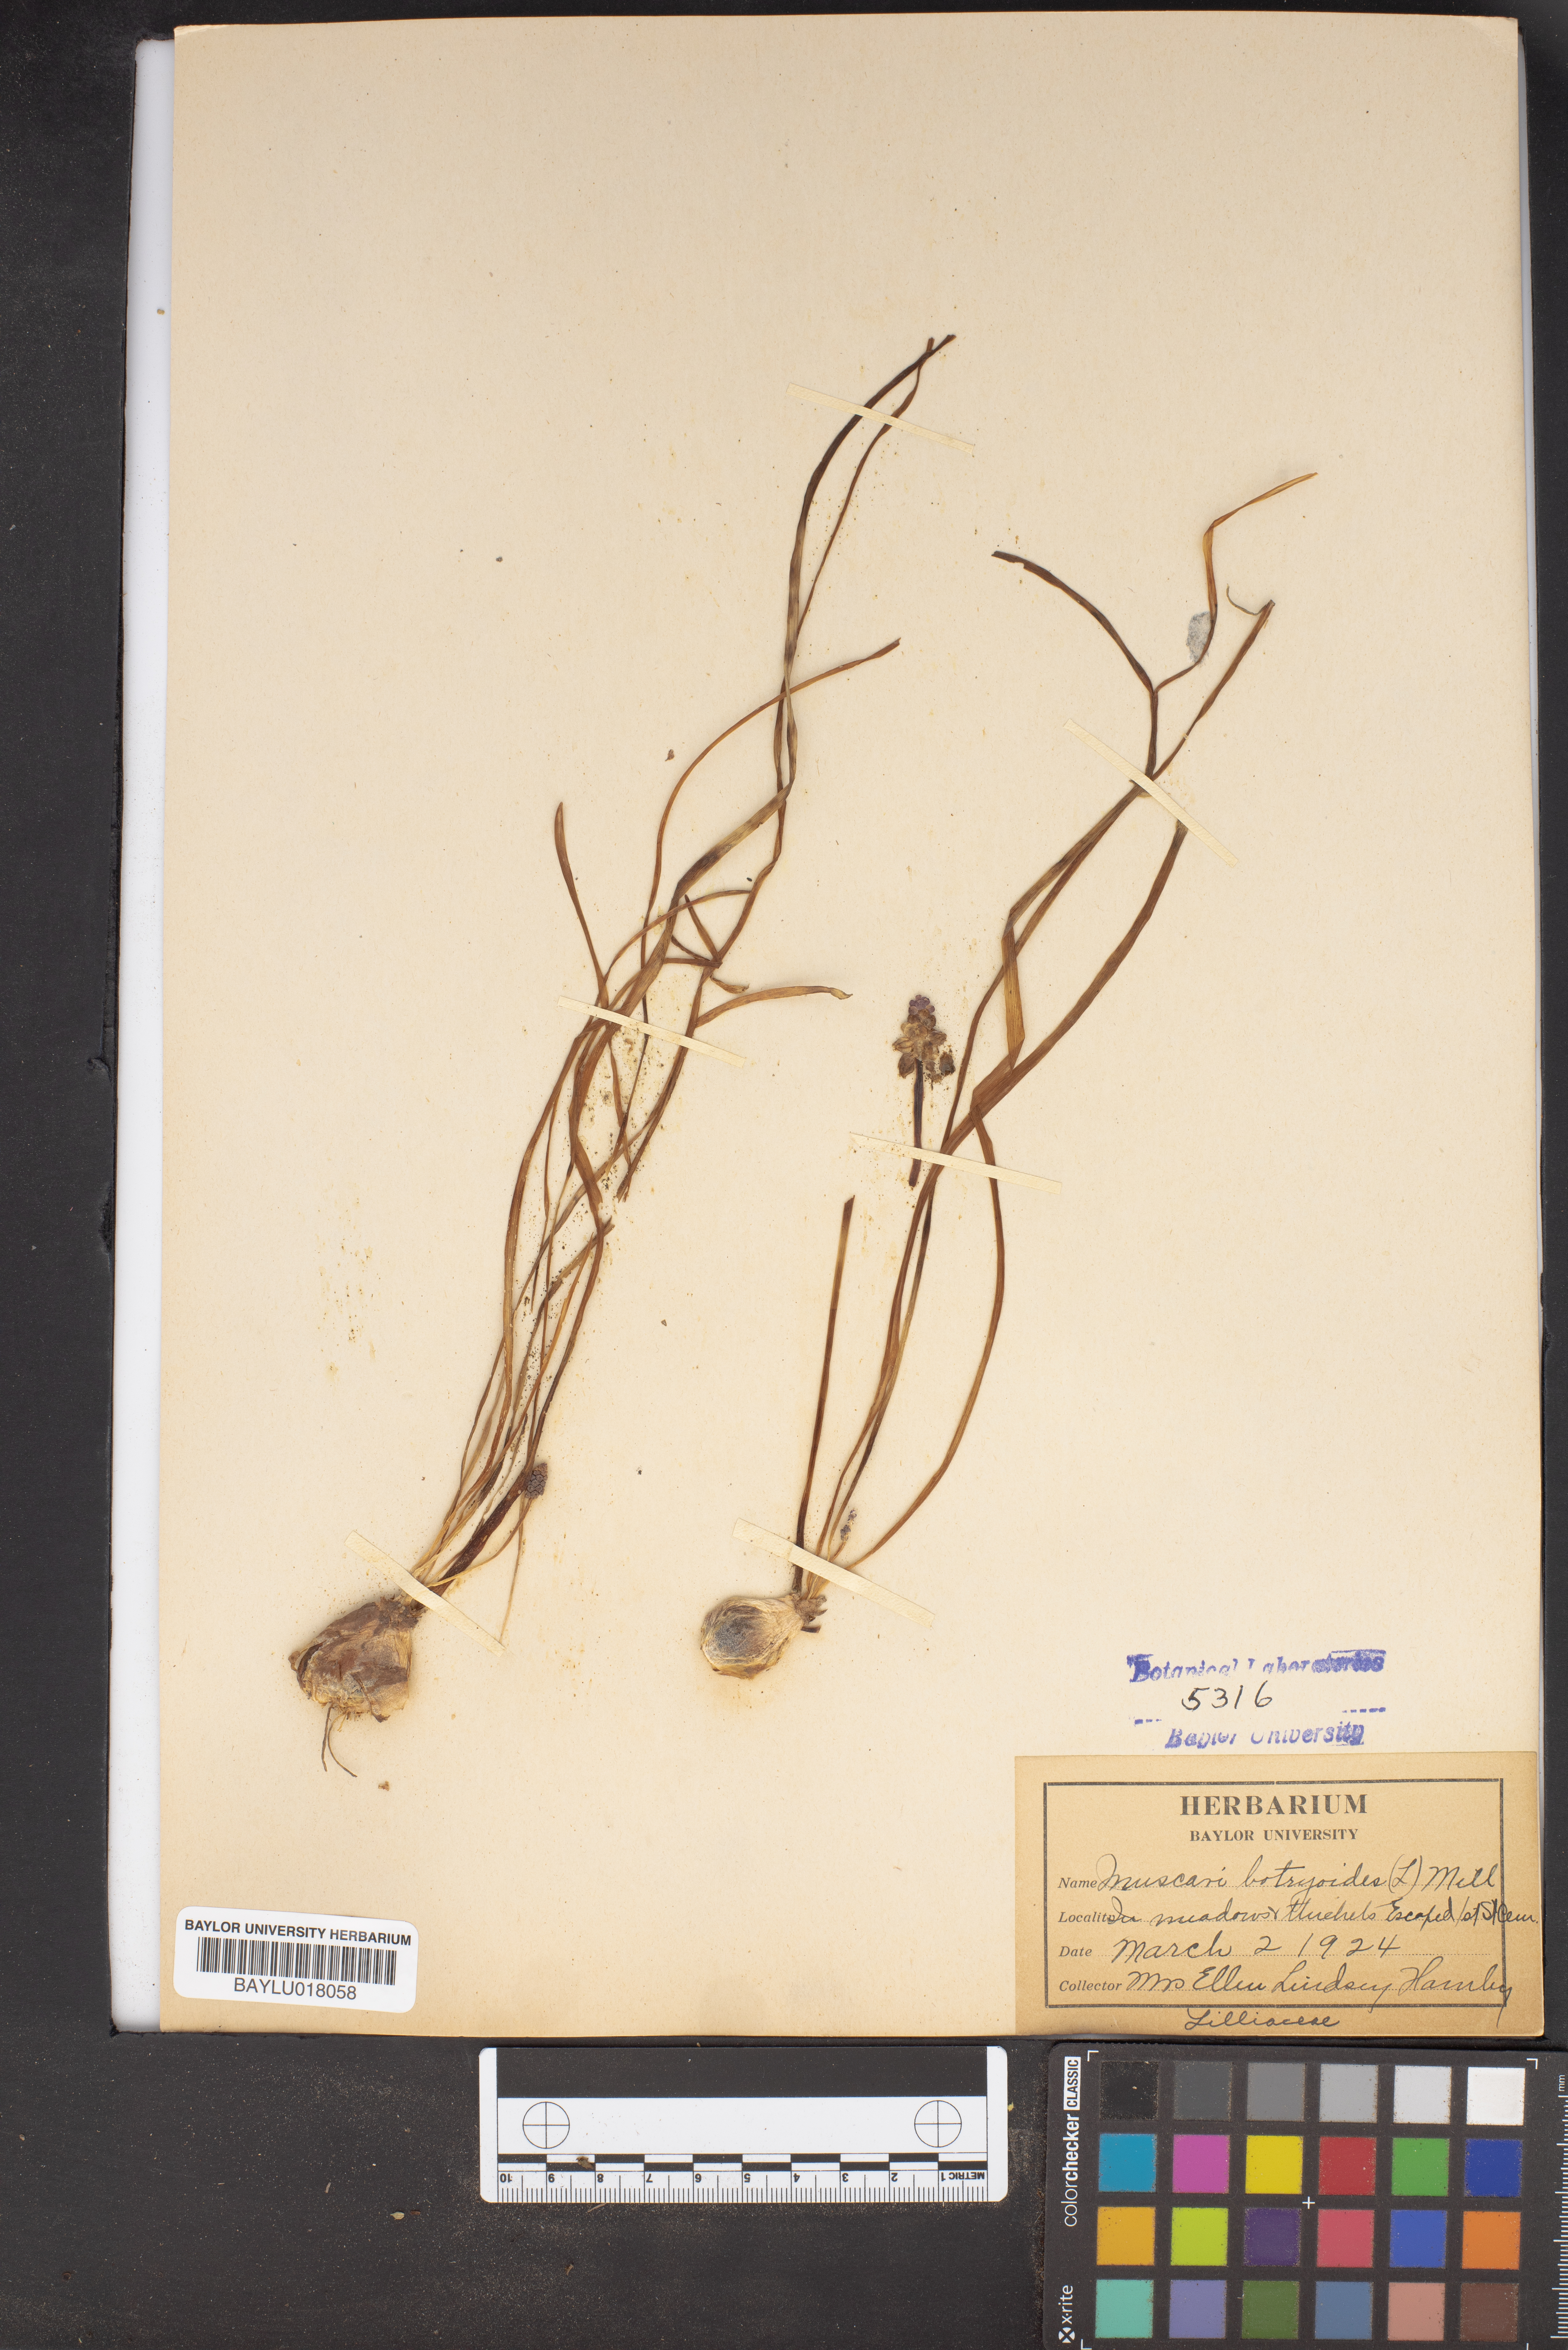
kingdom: Plantae
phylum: Tracheophyta
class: Liliopsida
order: Asparagales
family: Asparagaceae
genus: Muscari
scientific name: Muscari botryoides
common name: Compact grape-hyacinth
